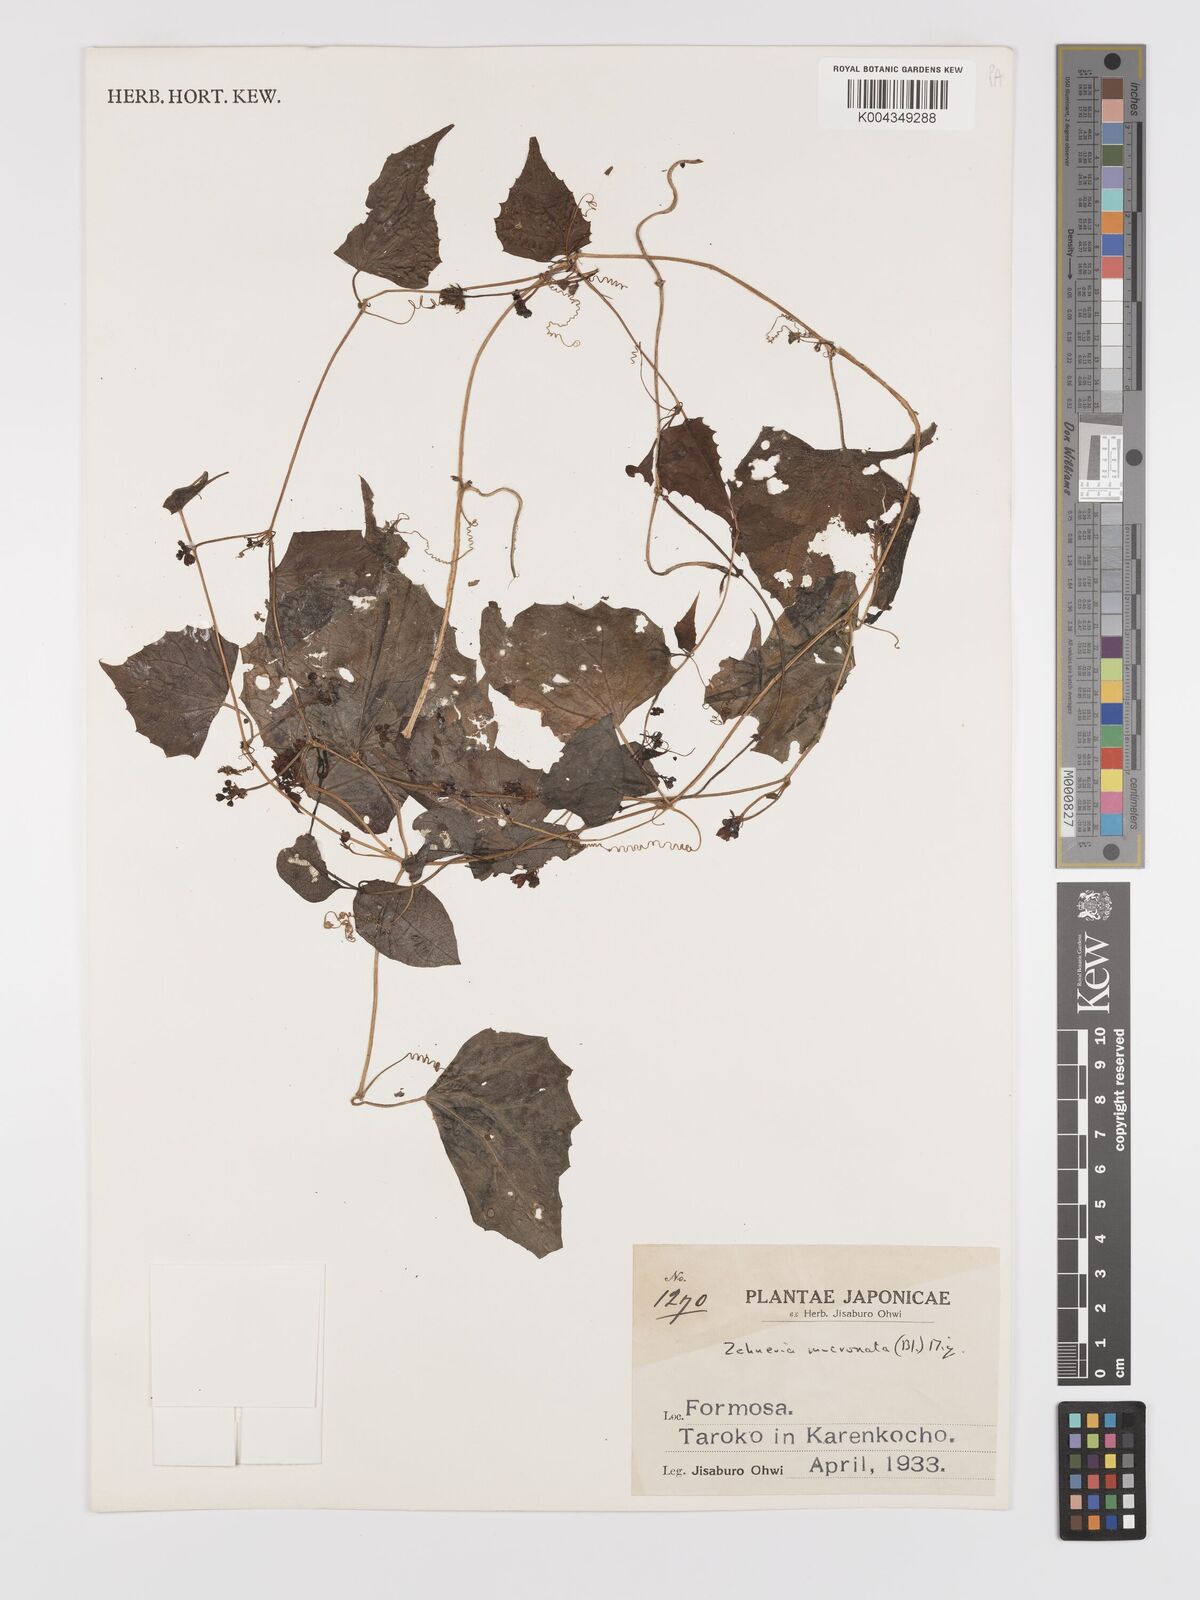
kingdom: Plantae
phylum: Tracheophyta
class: Magnoliopsida
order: Cucurbitales
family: Cucurbitaceae
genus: Zehneria
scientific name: Zehneria mucronata
